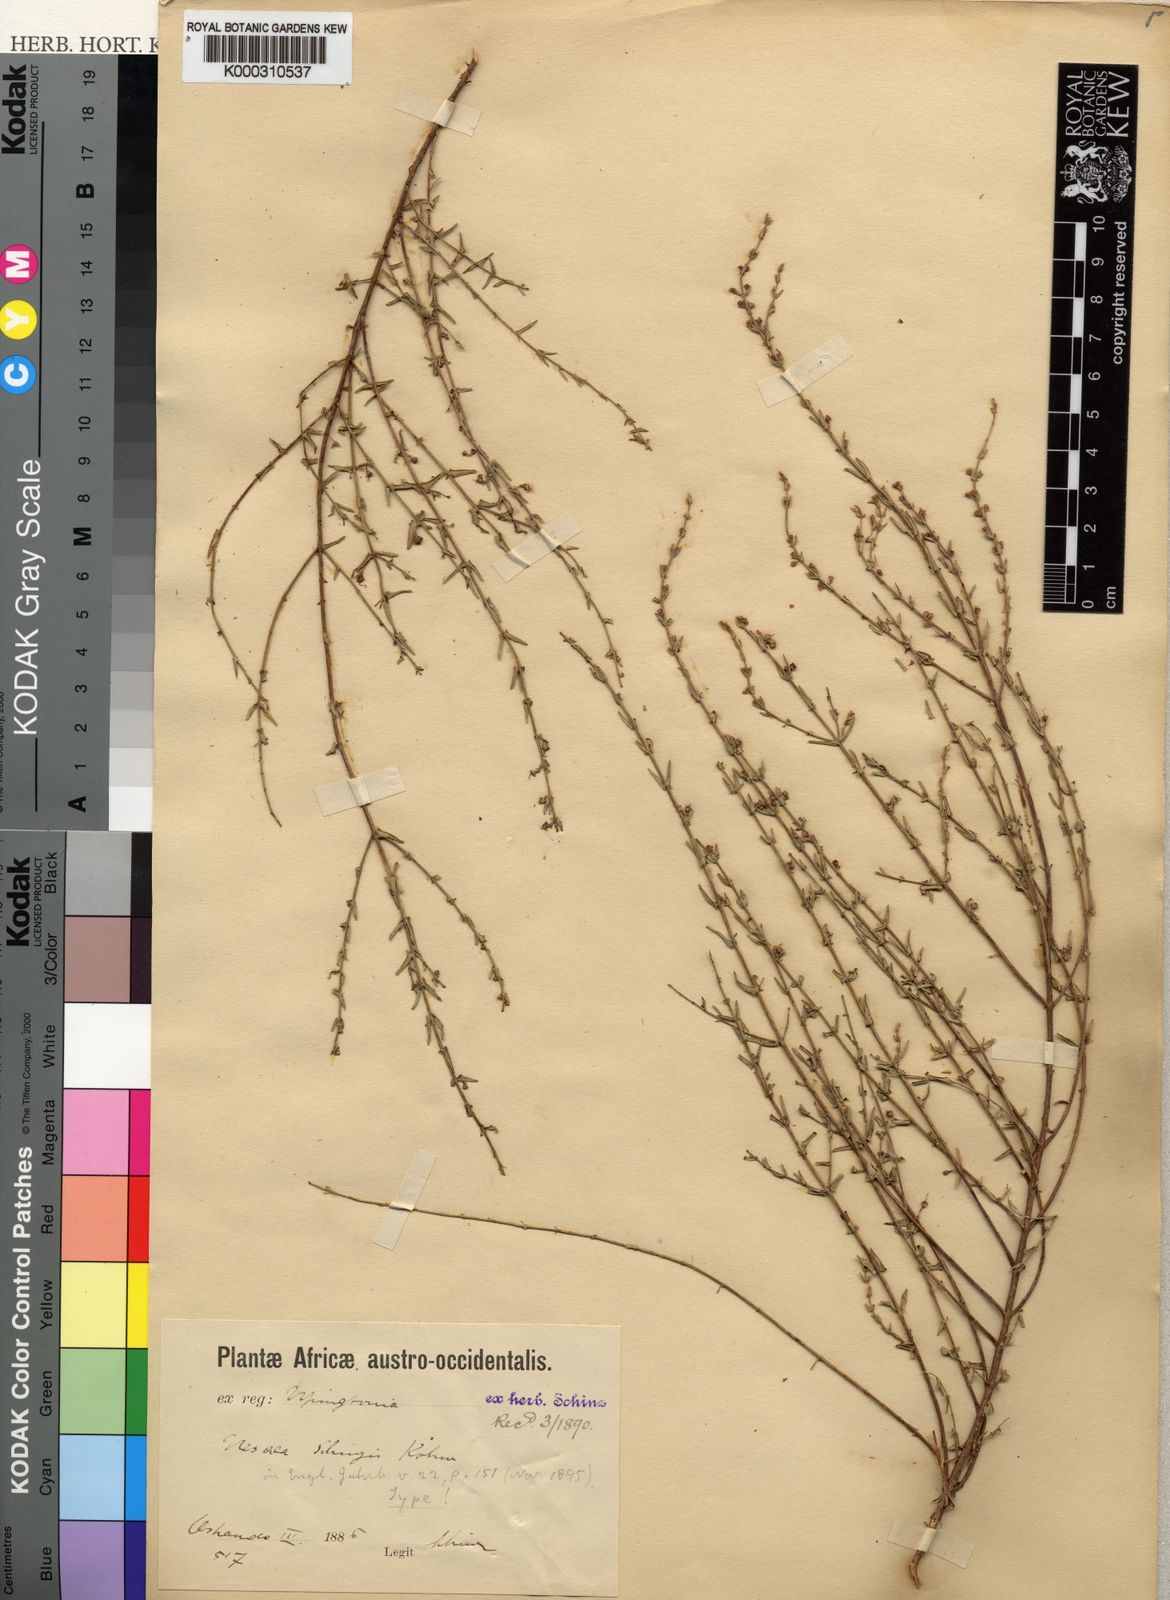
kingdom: Plantae
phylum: Tracheophyta
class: Magnoliopsida
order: Myrtales
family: Lythraceae
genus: Ammannia
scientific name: Ammannia schinzii
